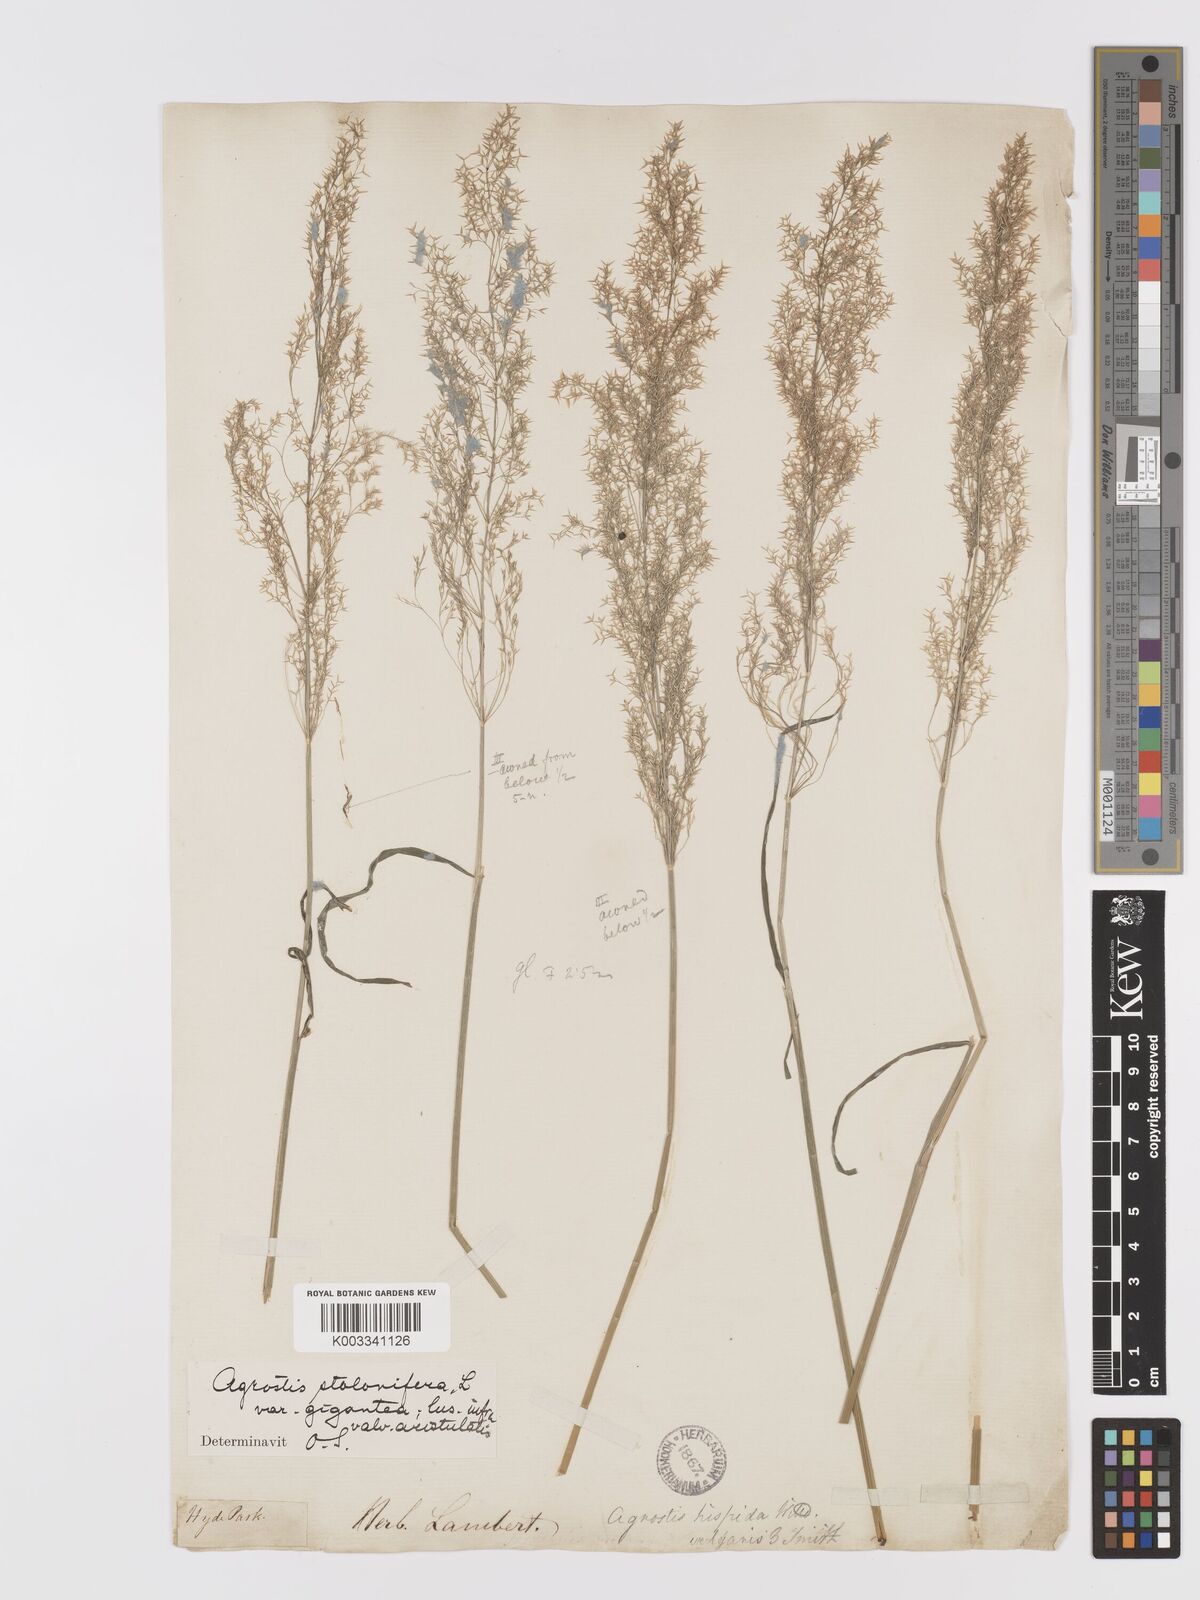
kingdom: Plantae
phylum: Tracheophyta
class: Liliopsida
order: Poales
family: Poaceae
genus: Agrostis
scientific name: Agrostis gigantea
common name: Black bent
